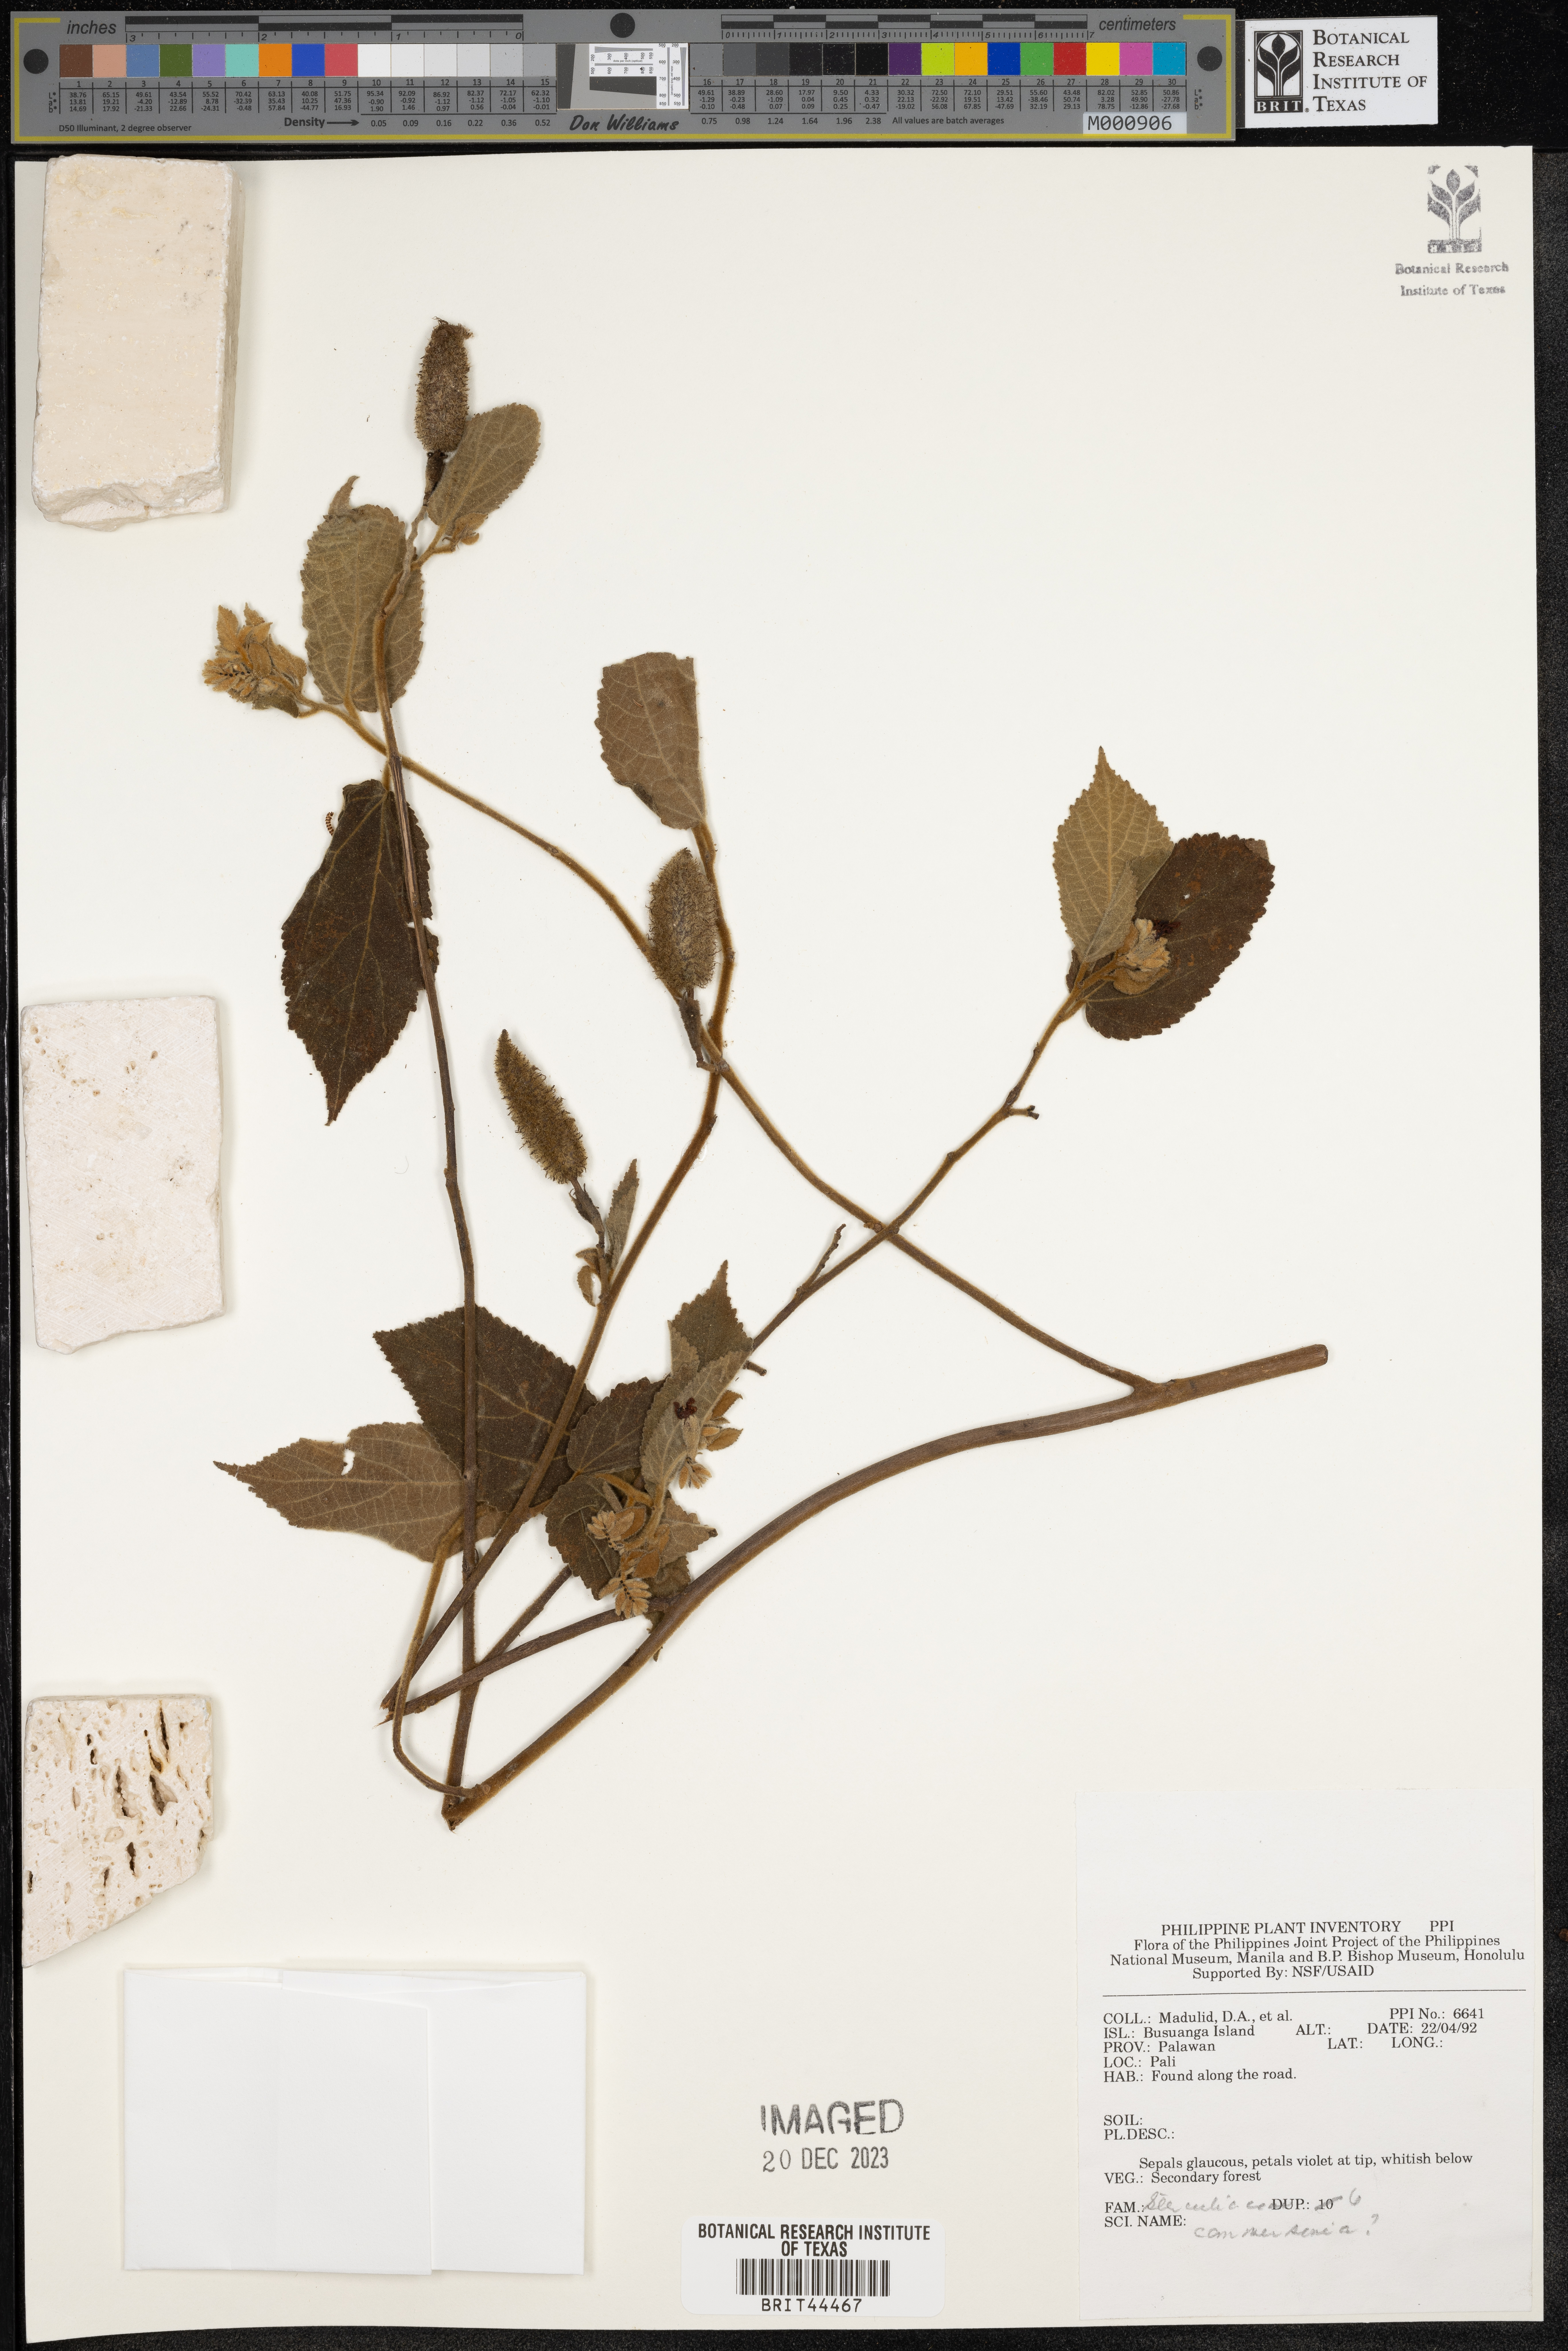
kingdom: Plantae
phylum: Tracheophyta
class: Magnoliopsida
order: Malvales
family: Malvaceae
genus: Commersonia
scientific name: Commersonia
